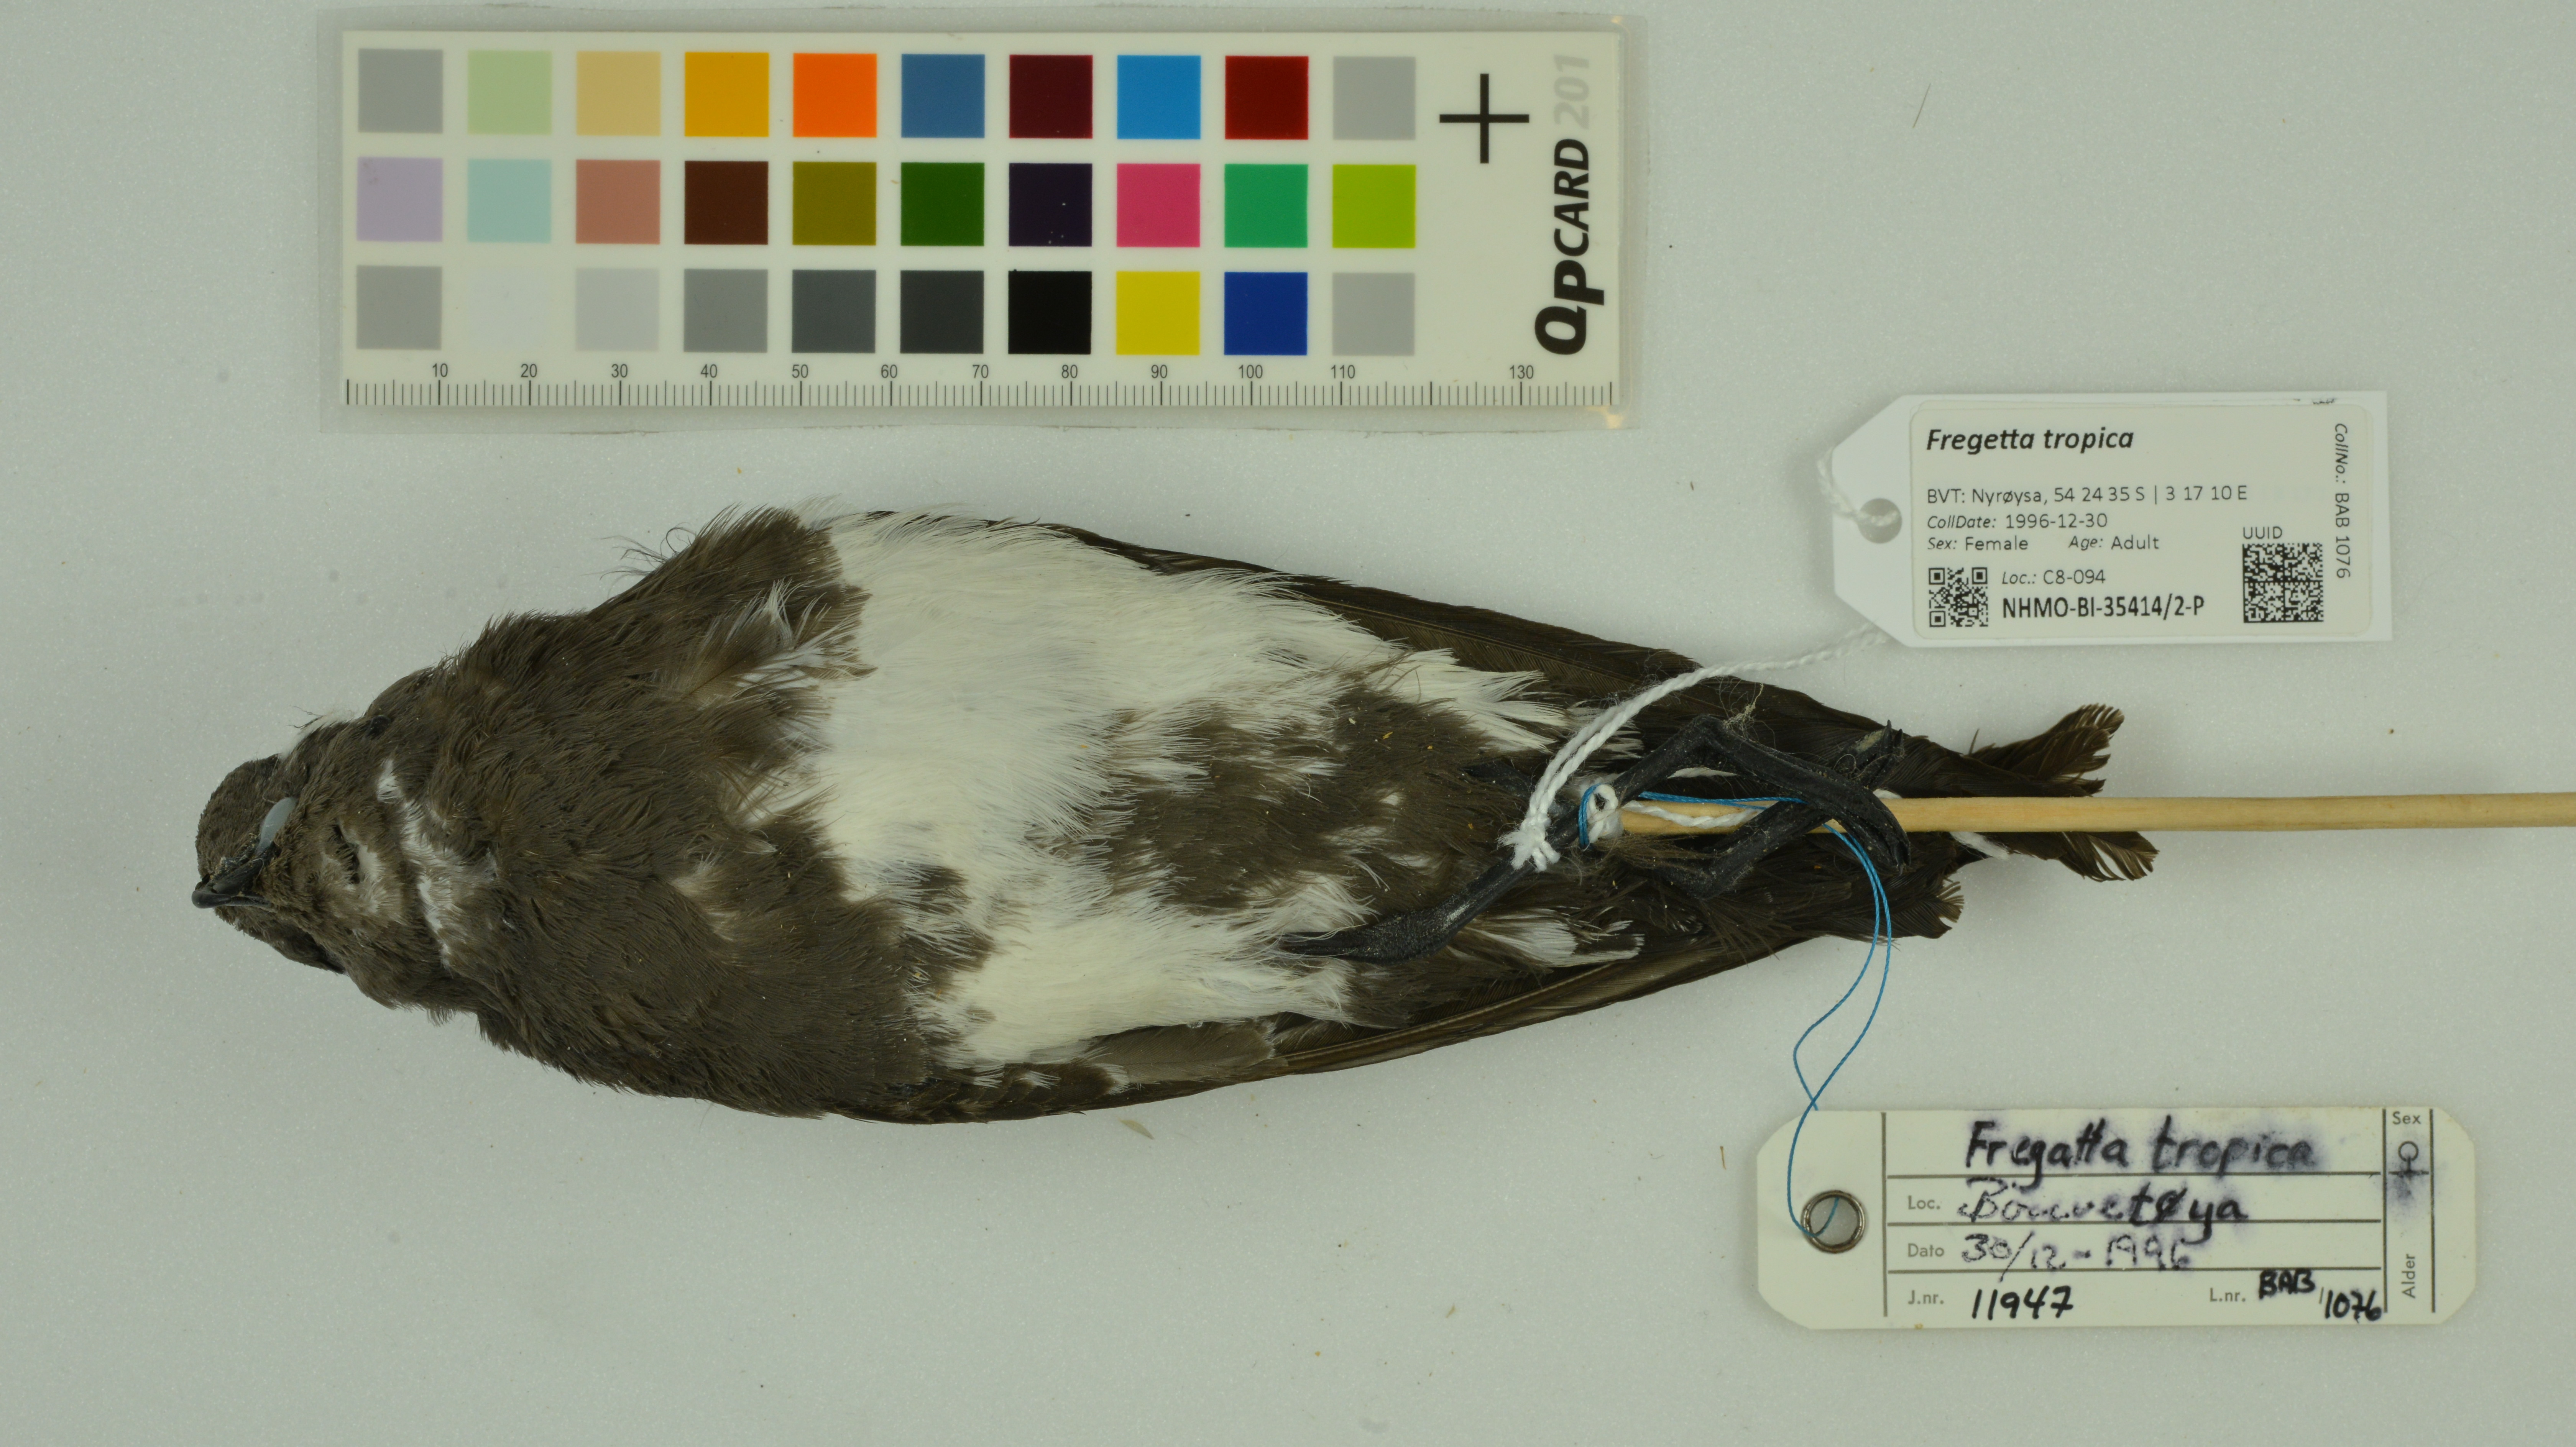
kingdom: Animalia
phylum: Chordata
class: Aves
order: Procellariiformes
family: Hydrobatidae
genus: Fregetta
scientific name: Fregetta tropica
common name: Black-bellied storm-petrel
